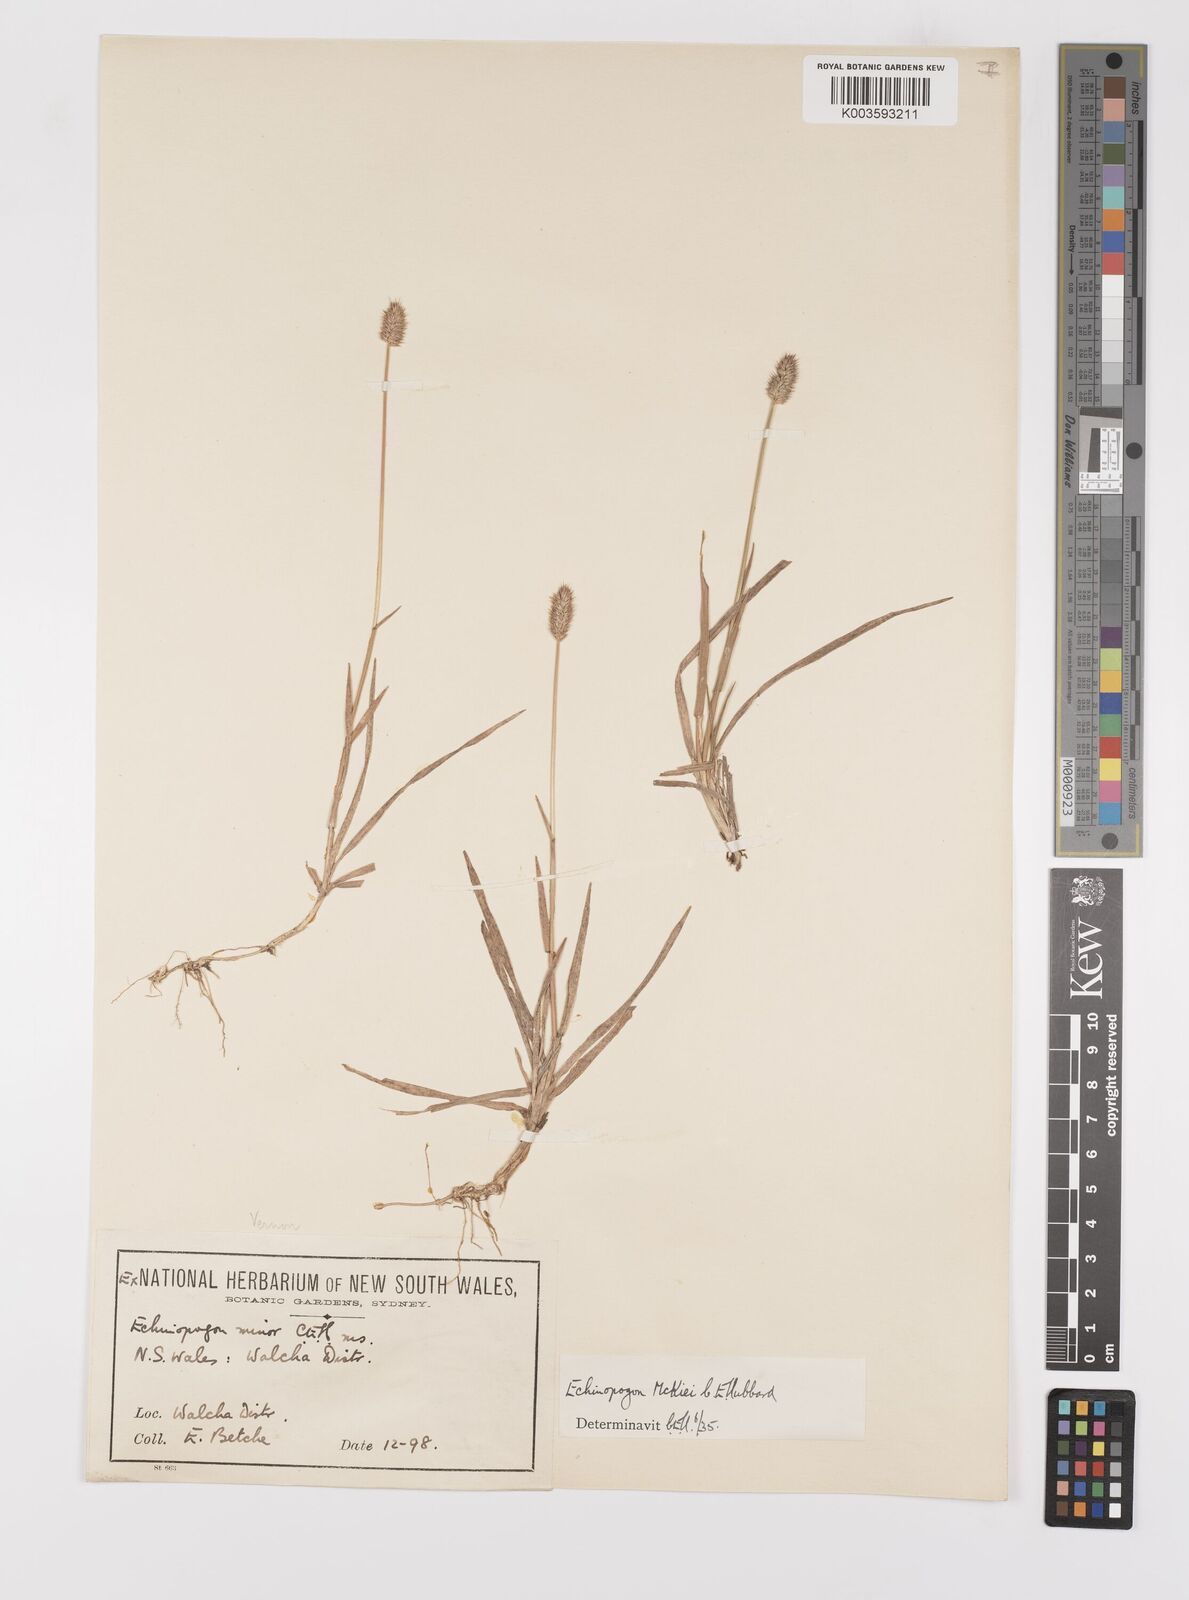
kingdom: Plantae
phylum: Tracheophyta
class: Liliopsida
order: Poales
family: Poaceae
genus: Echinopogon
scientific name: Echinopogon mckiei
